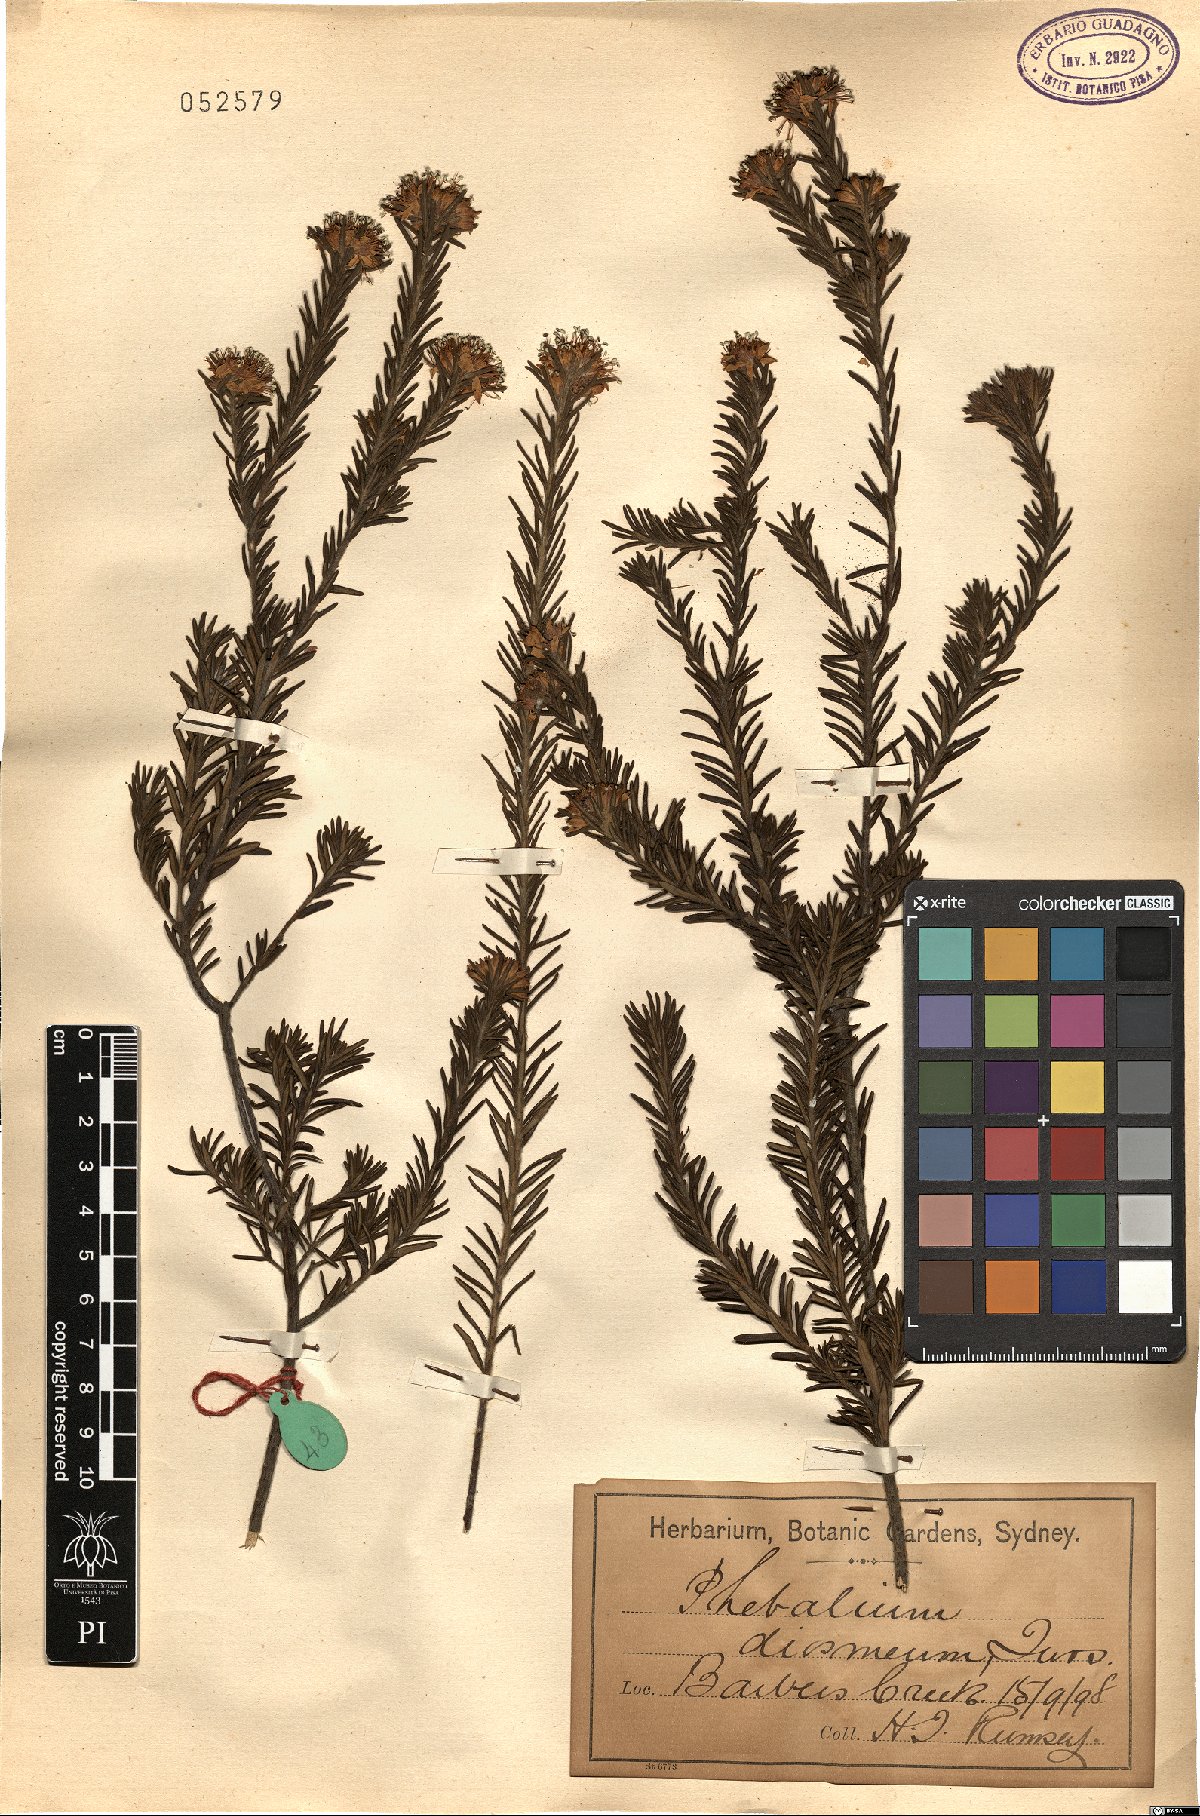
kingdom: Plantae
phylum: Tracheophyta
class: Magnoliopsida
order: Sapindales
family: Rutaceae
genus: Leionema
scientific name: Leionema diosmeum
